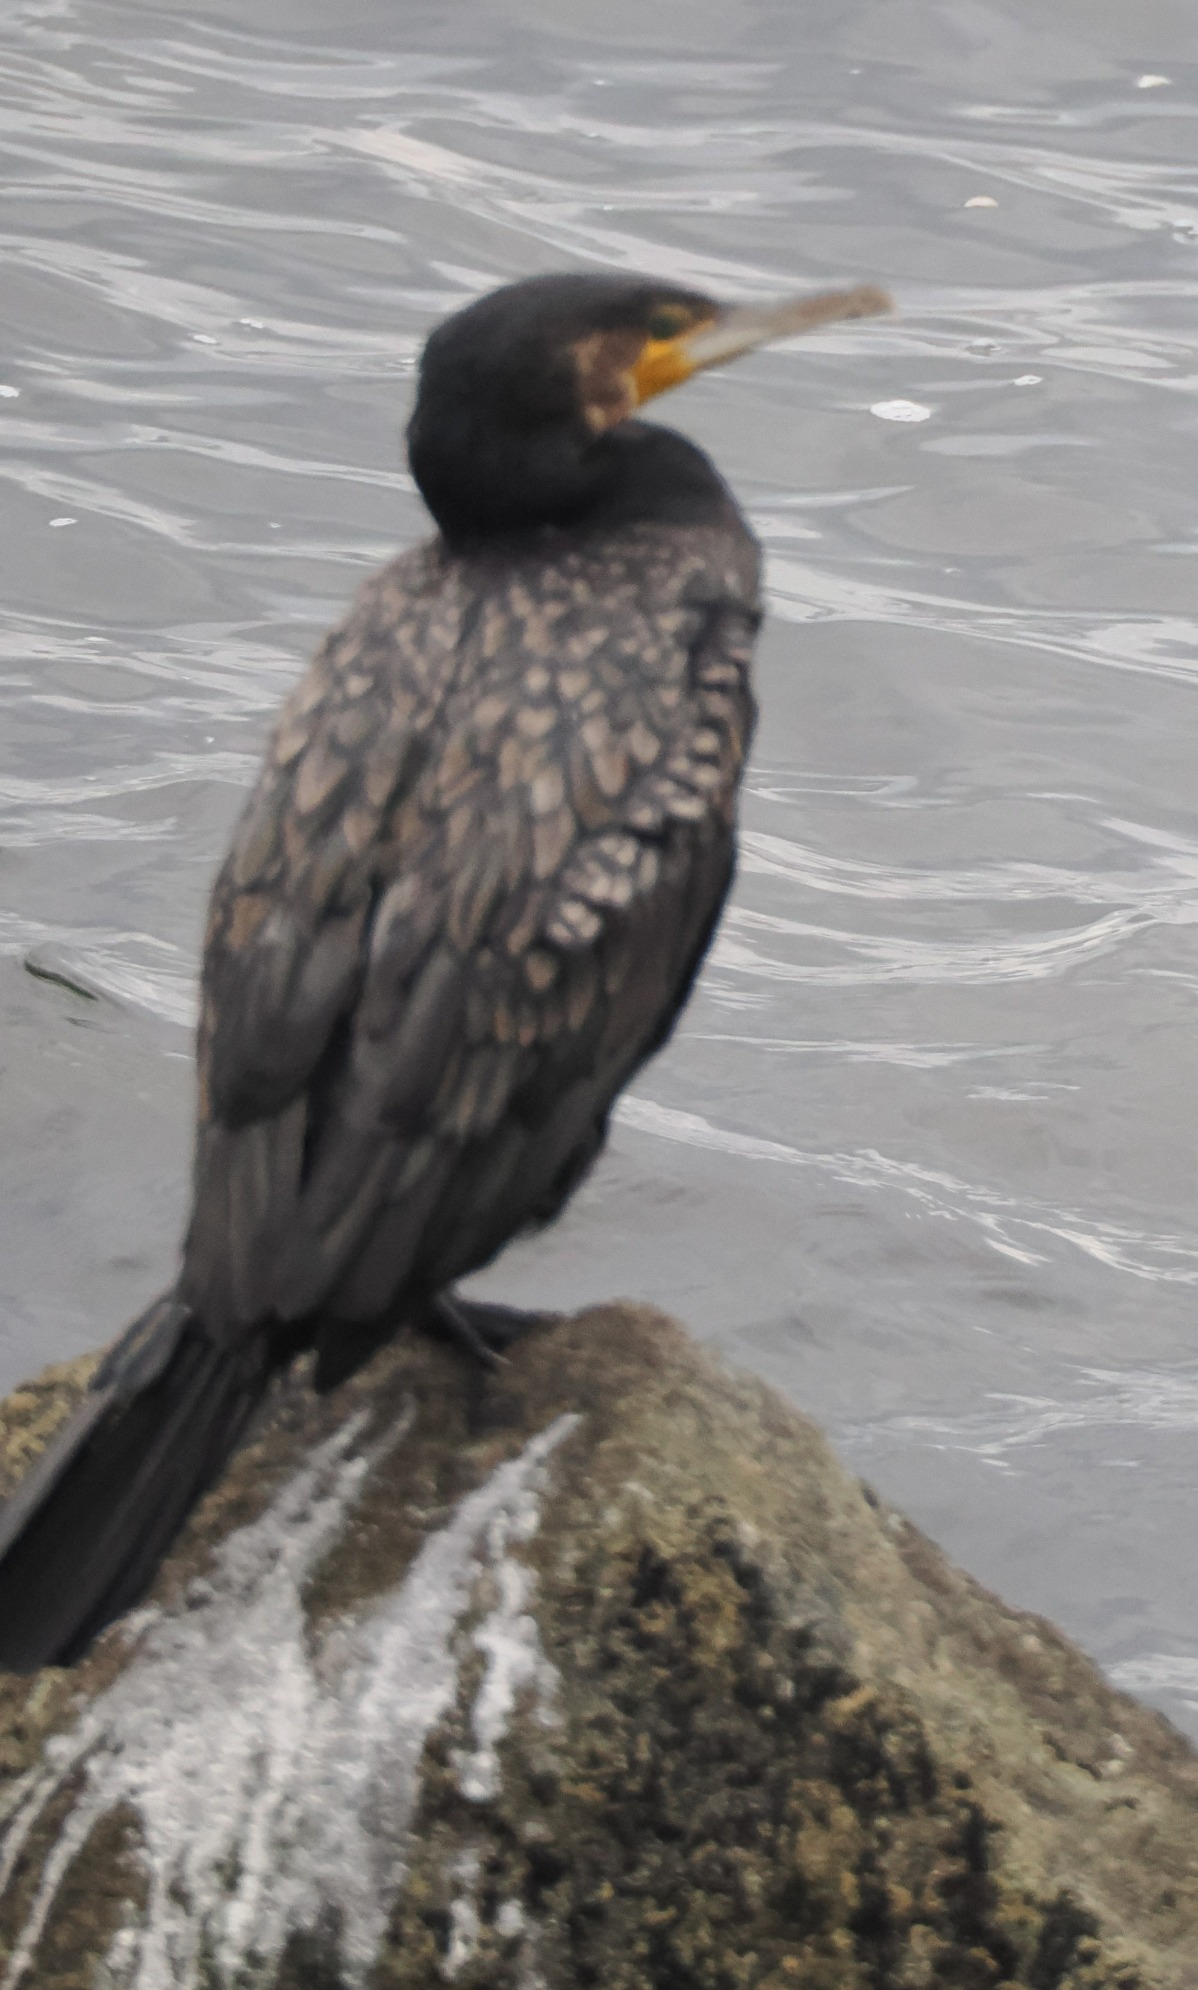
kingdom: Animalia
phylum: Chordata
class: Aves
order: Suliformes
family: Phalacrocoracidae
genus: Phalacrocorax
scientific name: Phalacrocorax carbo
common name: Skarv
